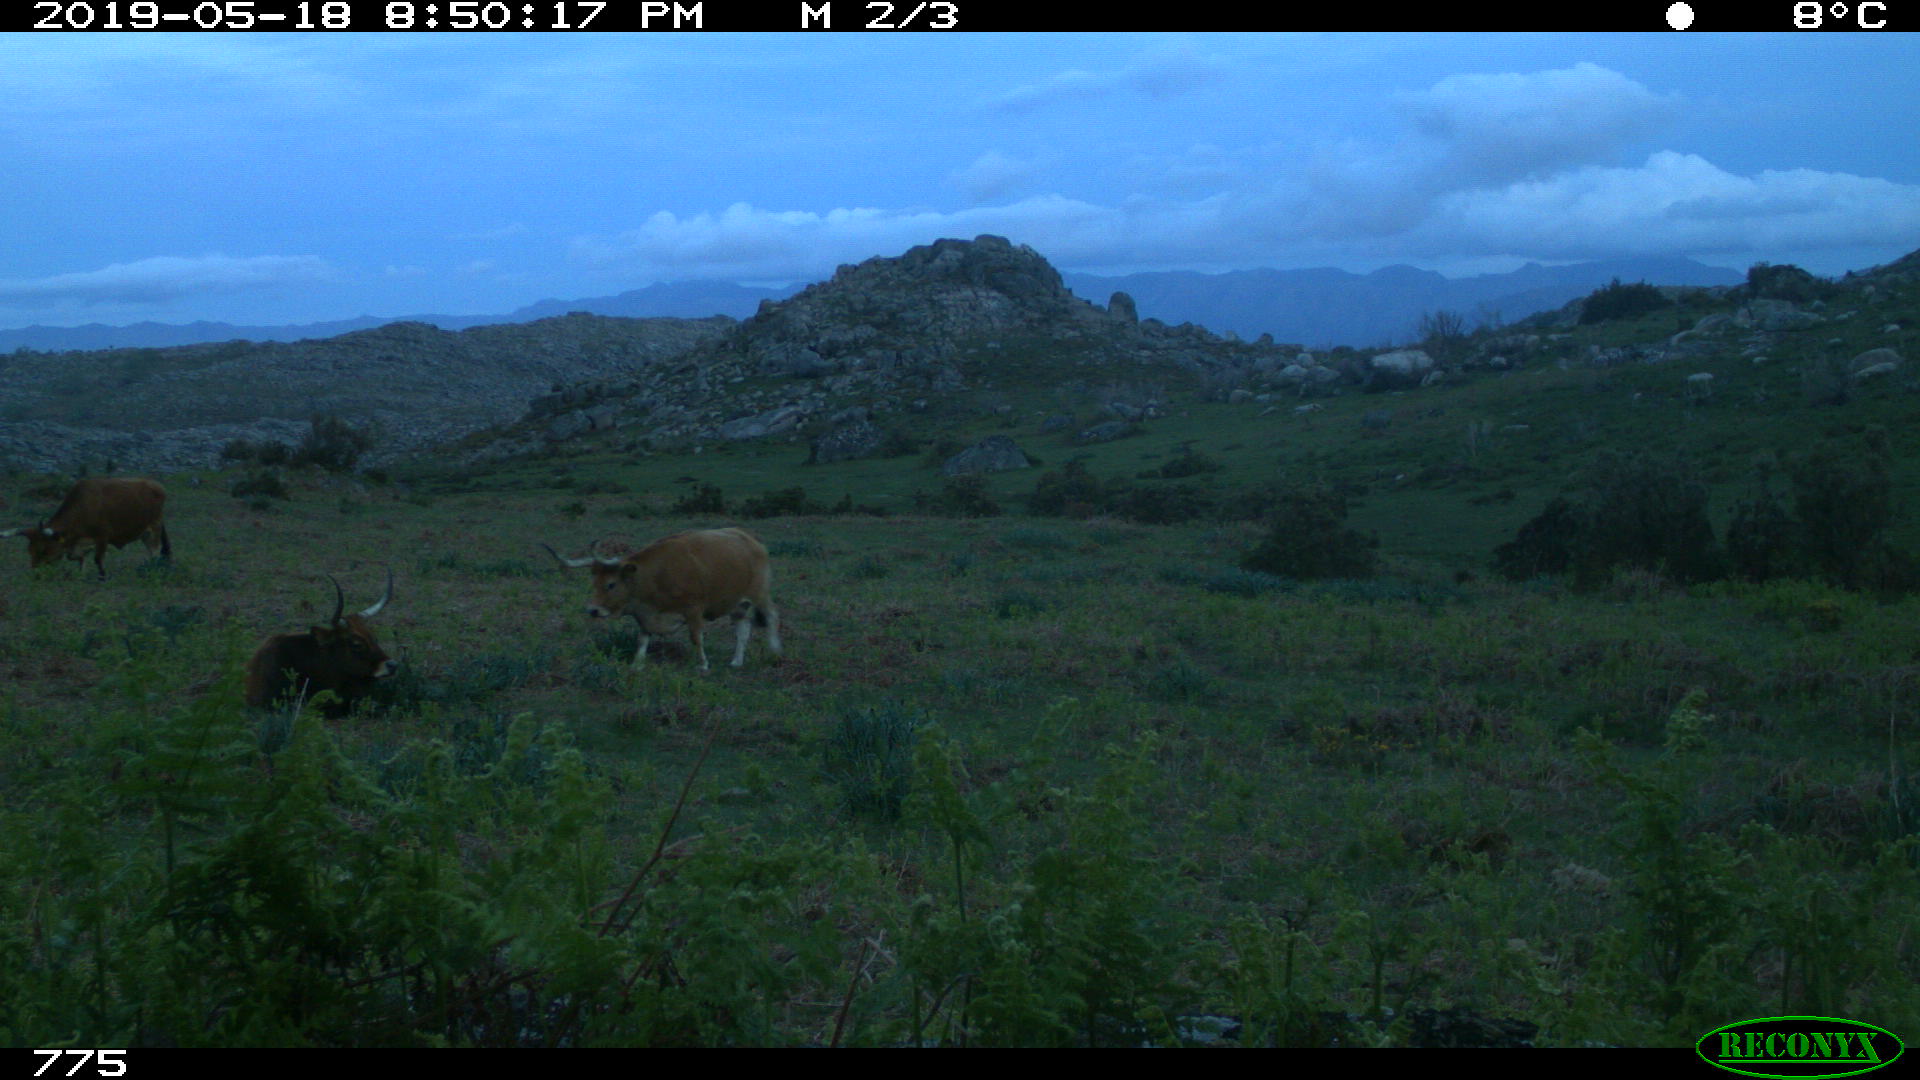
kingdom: Animalia
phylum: Chordata
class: Mammalia
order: Artiodactyla
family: Bovidae
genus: Bos
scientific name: Bos taurus
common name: Domesticated cattle
